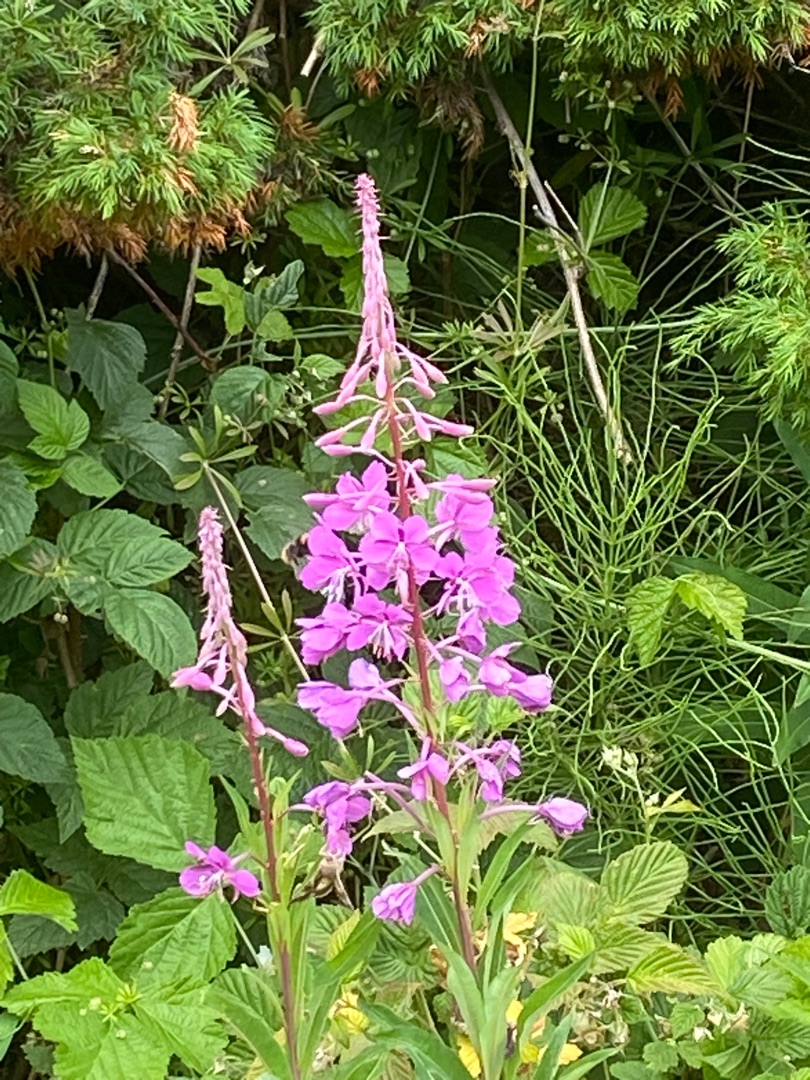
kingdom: Plantae
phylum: Tracheophyta
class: Magnoliopsida
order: Myrtales
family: Onagraceae
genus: Chamaenerion
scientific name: Chamaenerion angustifolium
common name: Gederams
